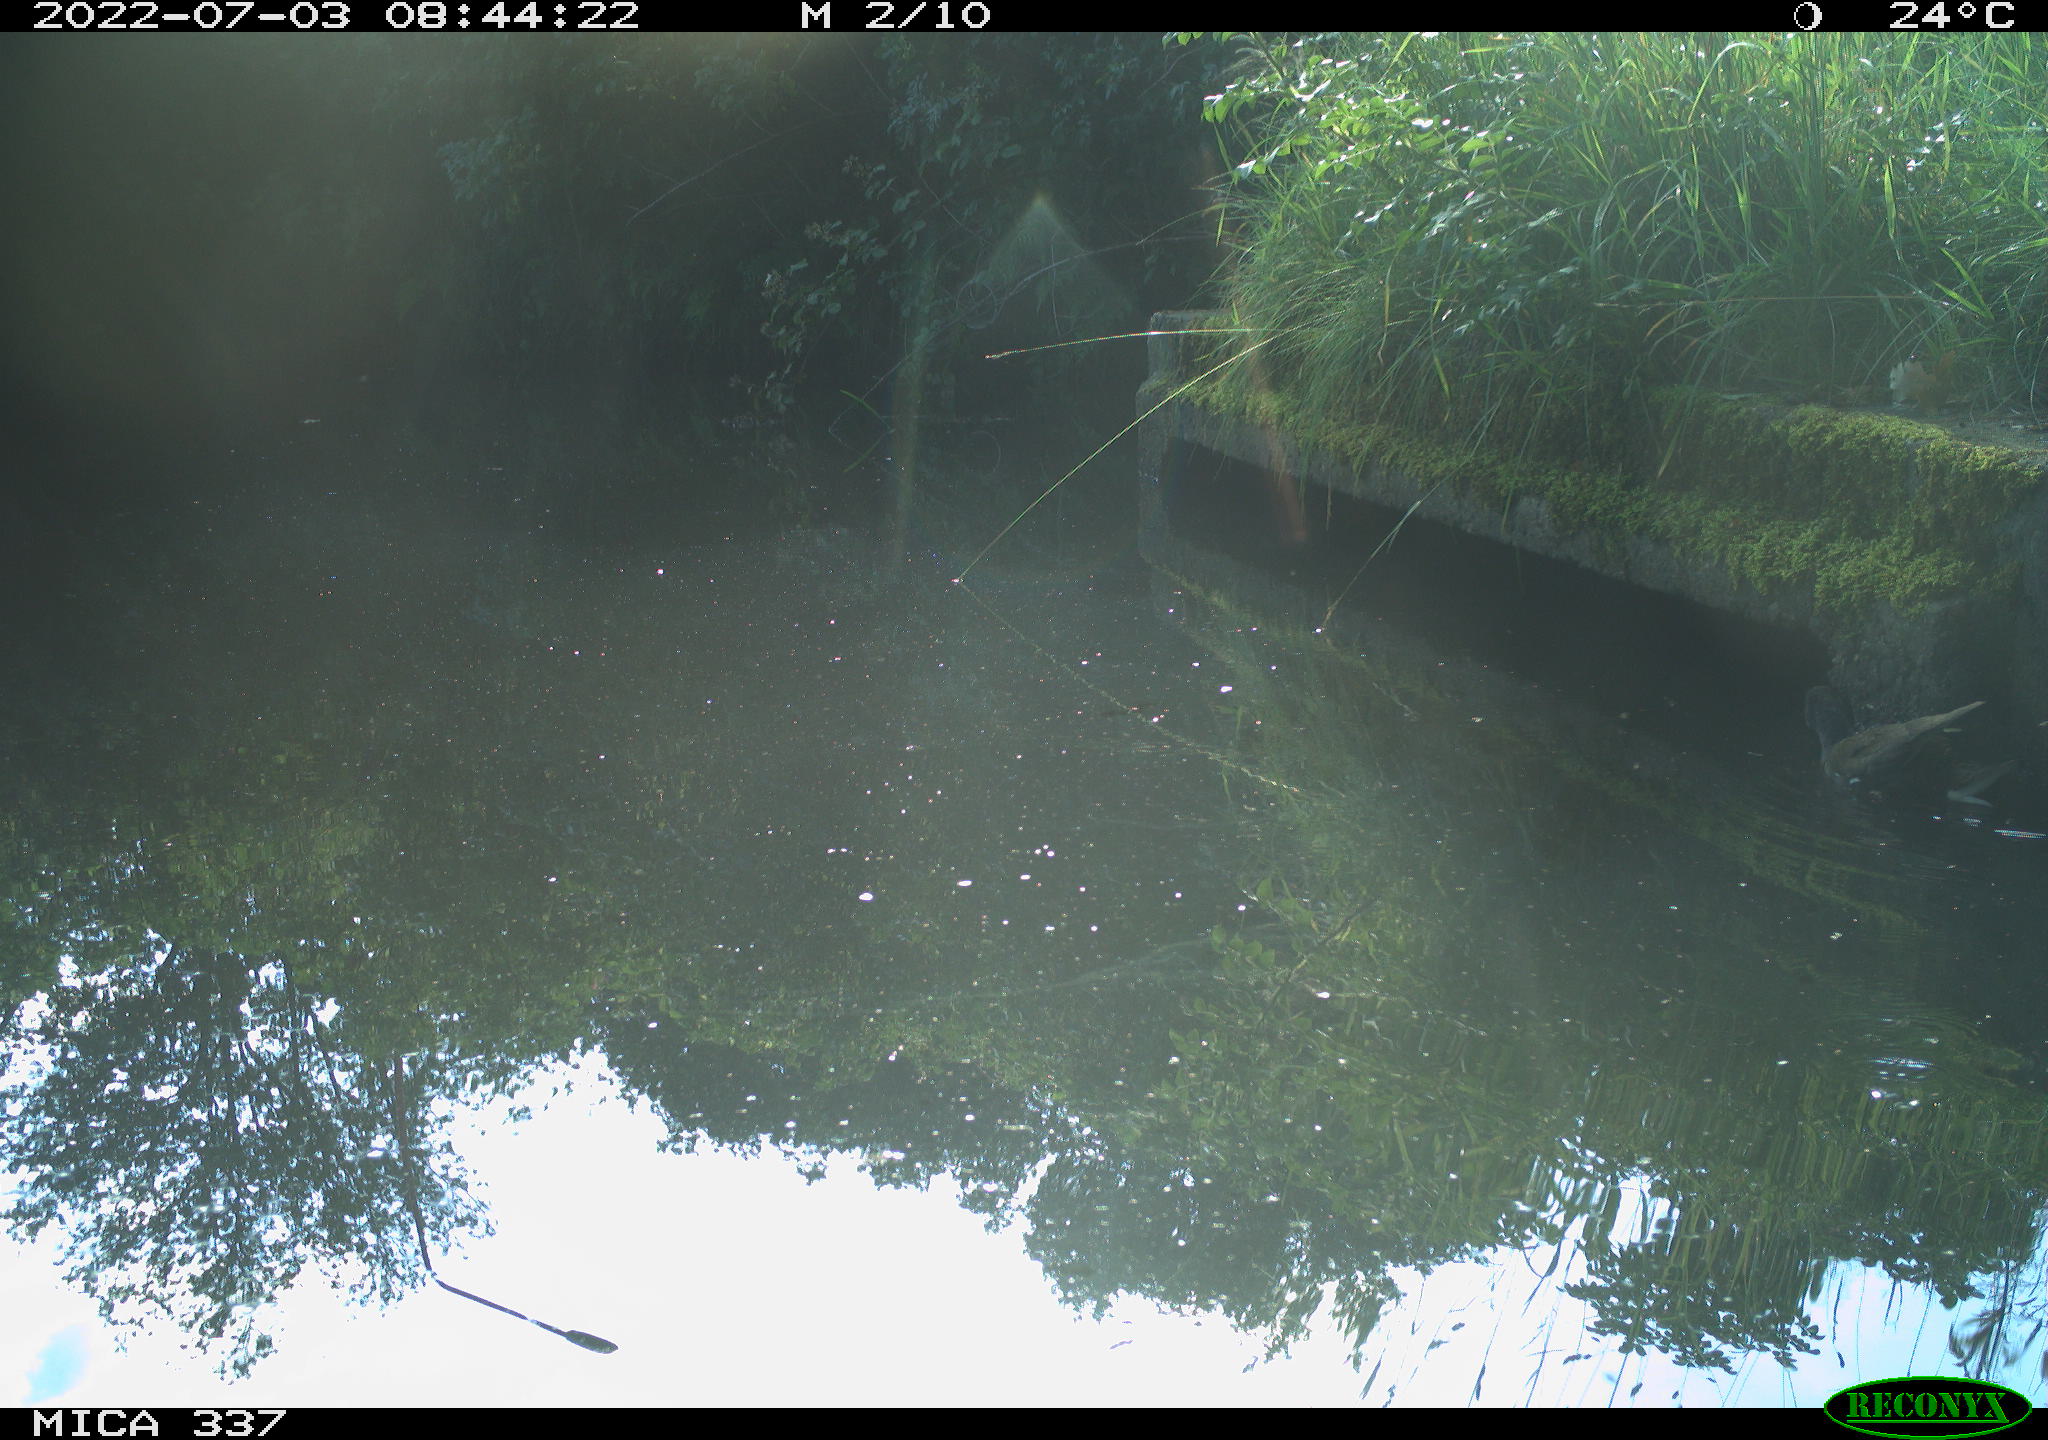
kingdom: Animalia
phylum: Chordata
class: Aves
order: Gruiformes
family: Rallidae
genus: Gallinula
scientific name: Gallinula chloropus
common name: Common moorhen
